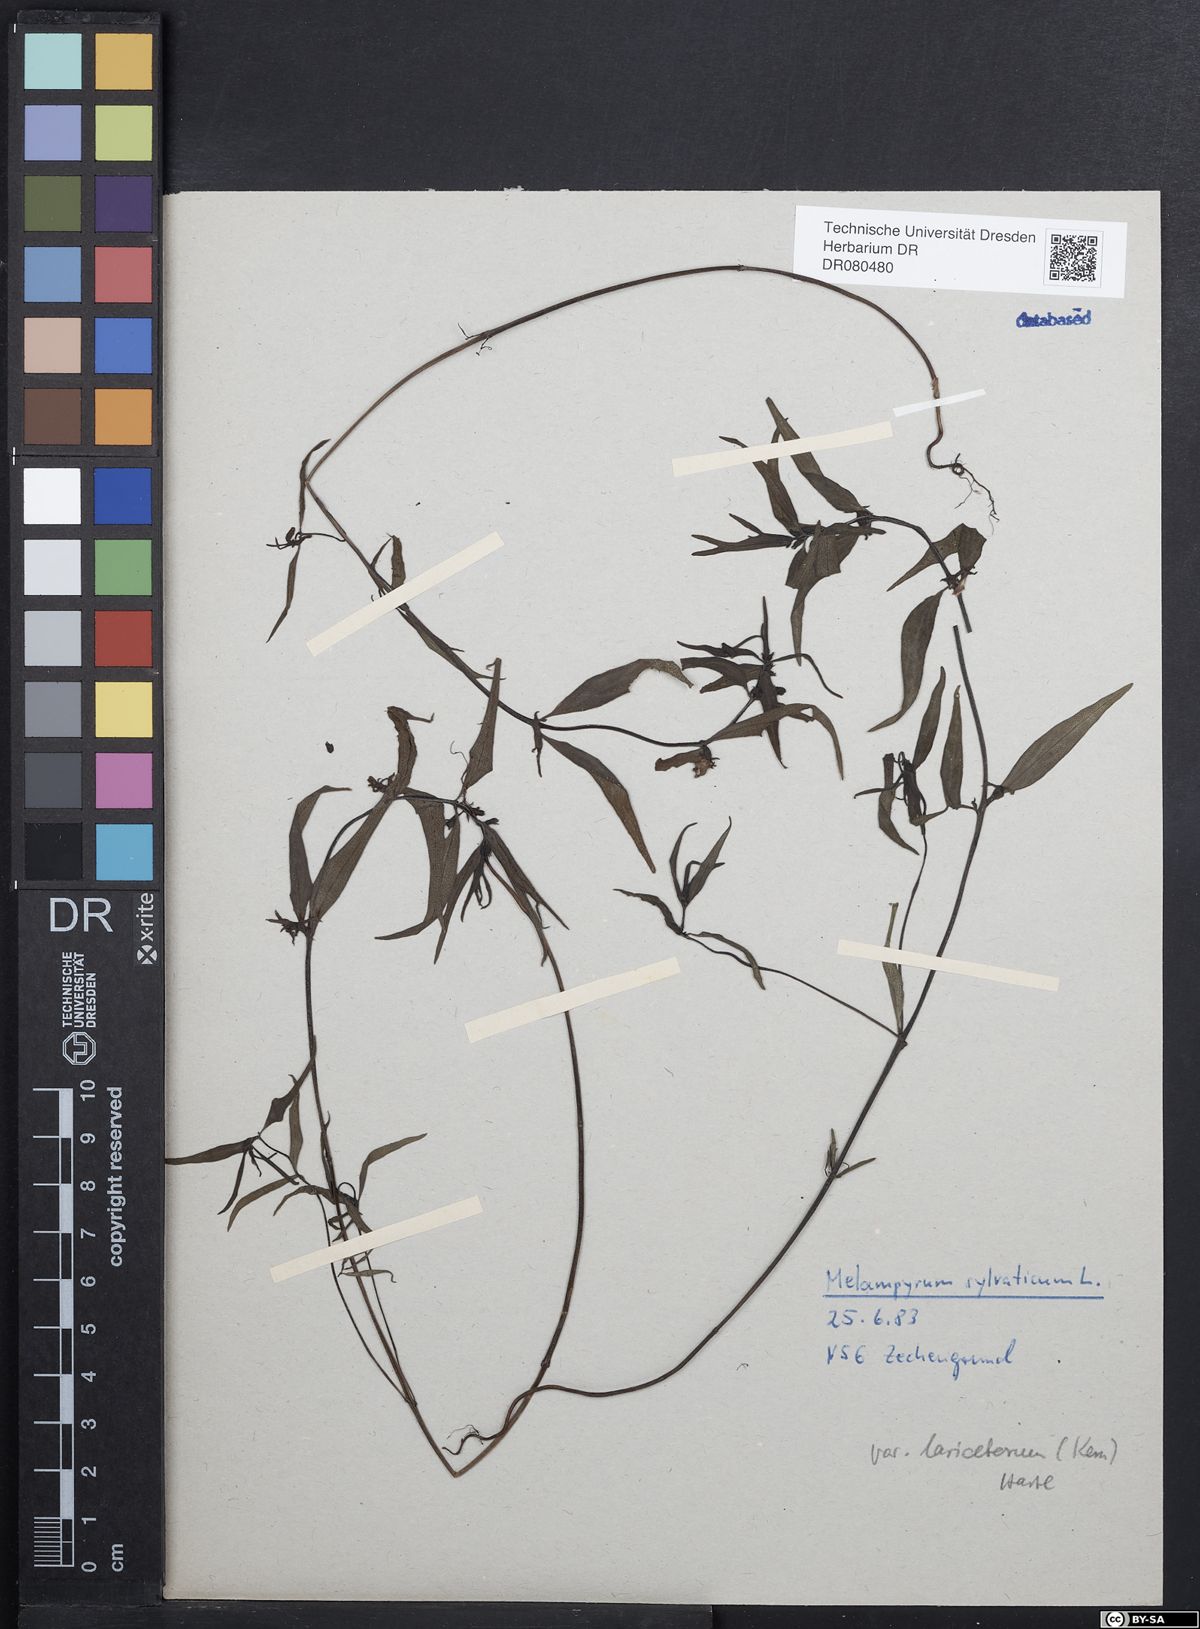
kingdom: Plantae
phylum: Tracheophyta
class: Magnoliopsida
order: Lamiales
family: Orobanchaceae
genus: Melampyrum
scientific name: Melampyrum sylvaticum
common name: Small cow-wheat
